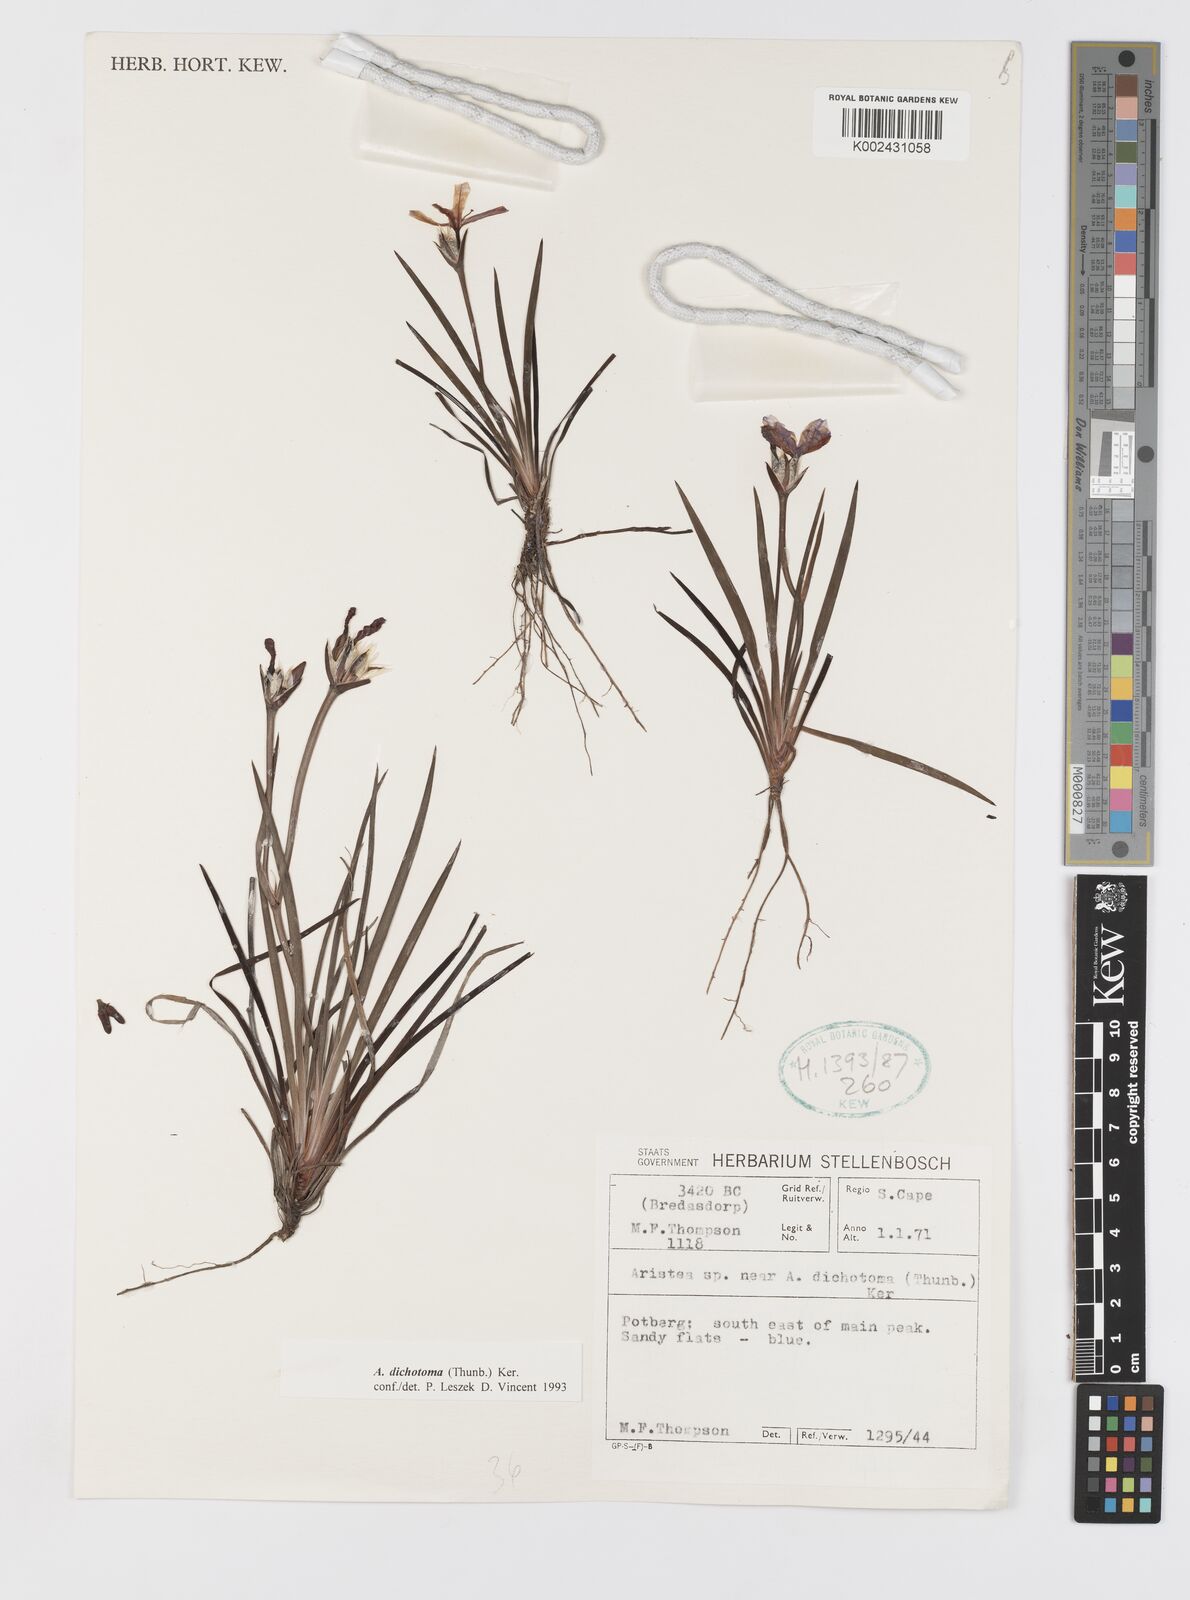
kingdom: Plantae
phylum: Tracheophyta
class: Liliopsida
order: Asparagales
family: Iridaceae
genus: Aristea
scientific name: Aristea dichotoma
